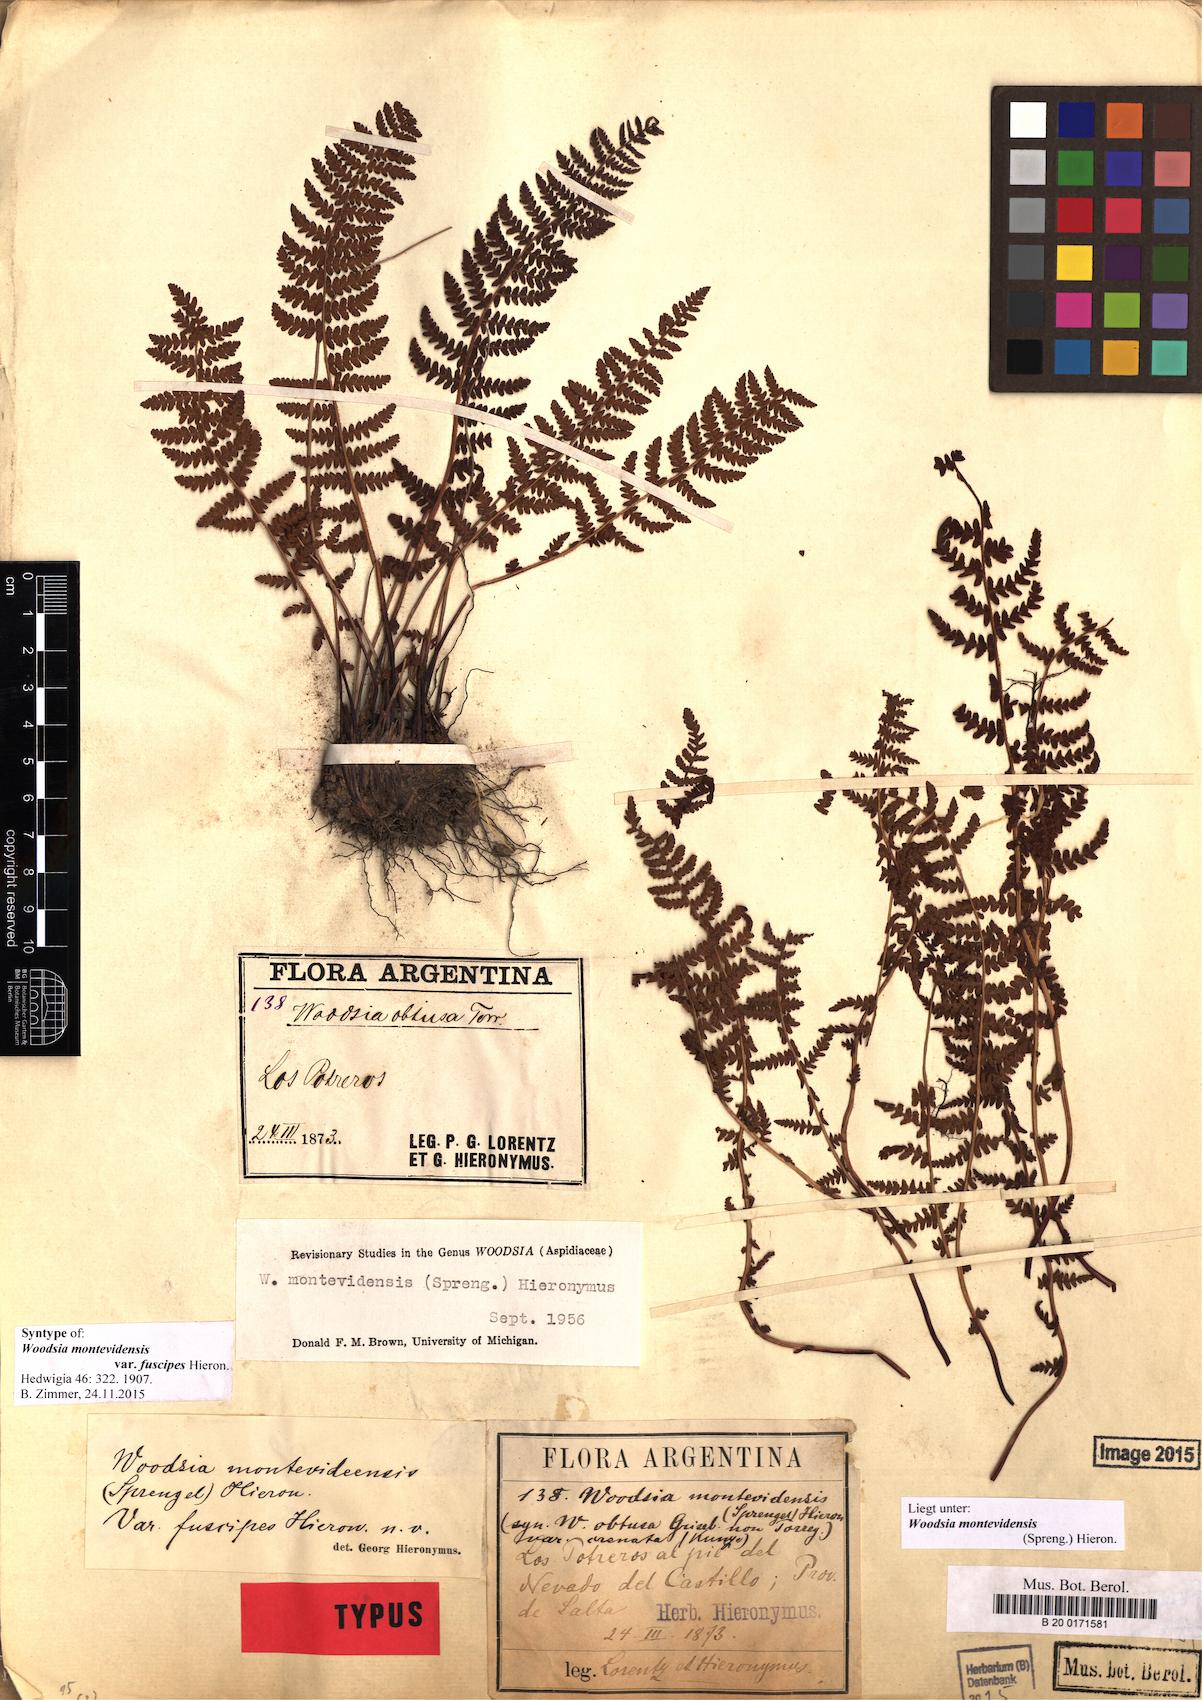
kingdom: Plantae
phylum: Tracheophyta
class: Polypodiopsida
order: Polypodiales
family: Woodsiaceae
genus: Physematium
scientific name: Physematium montevidense
